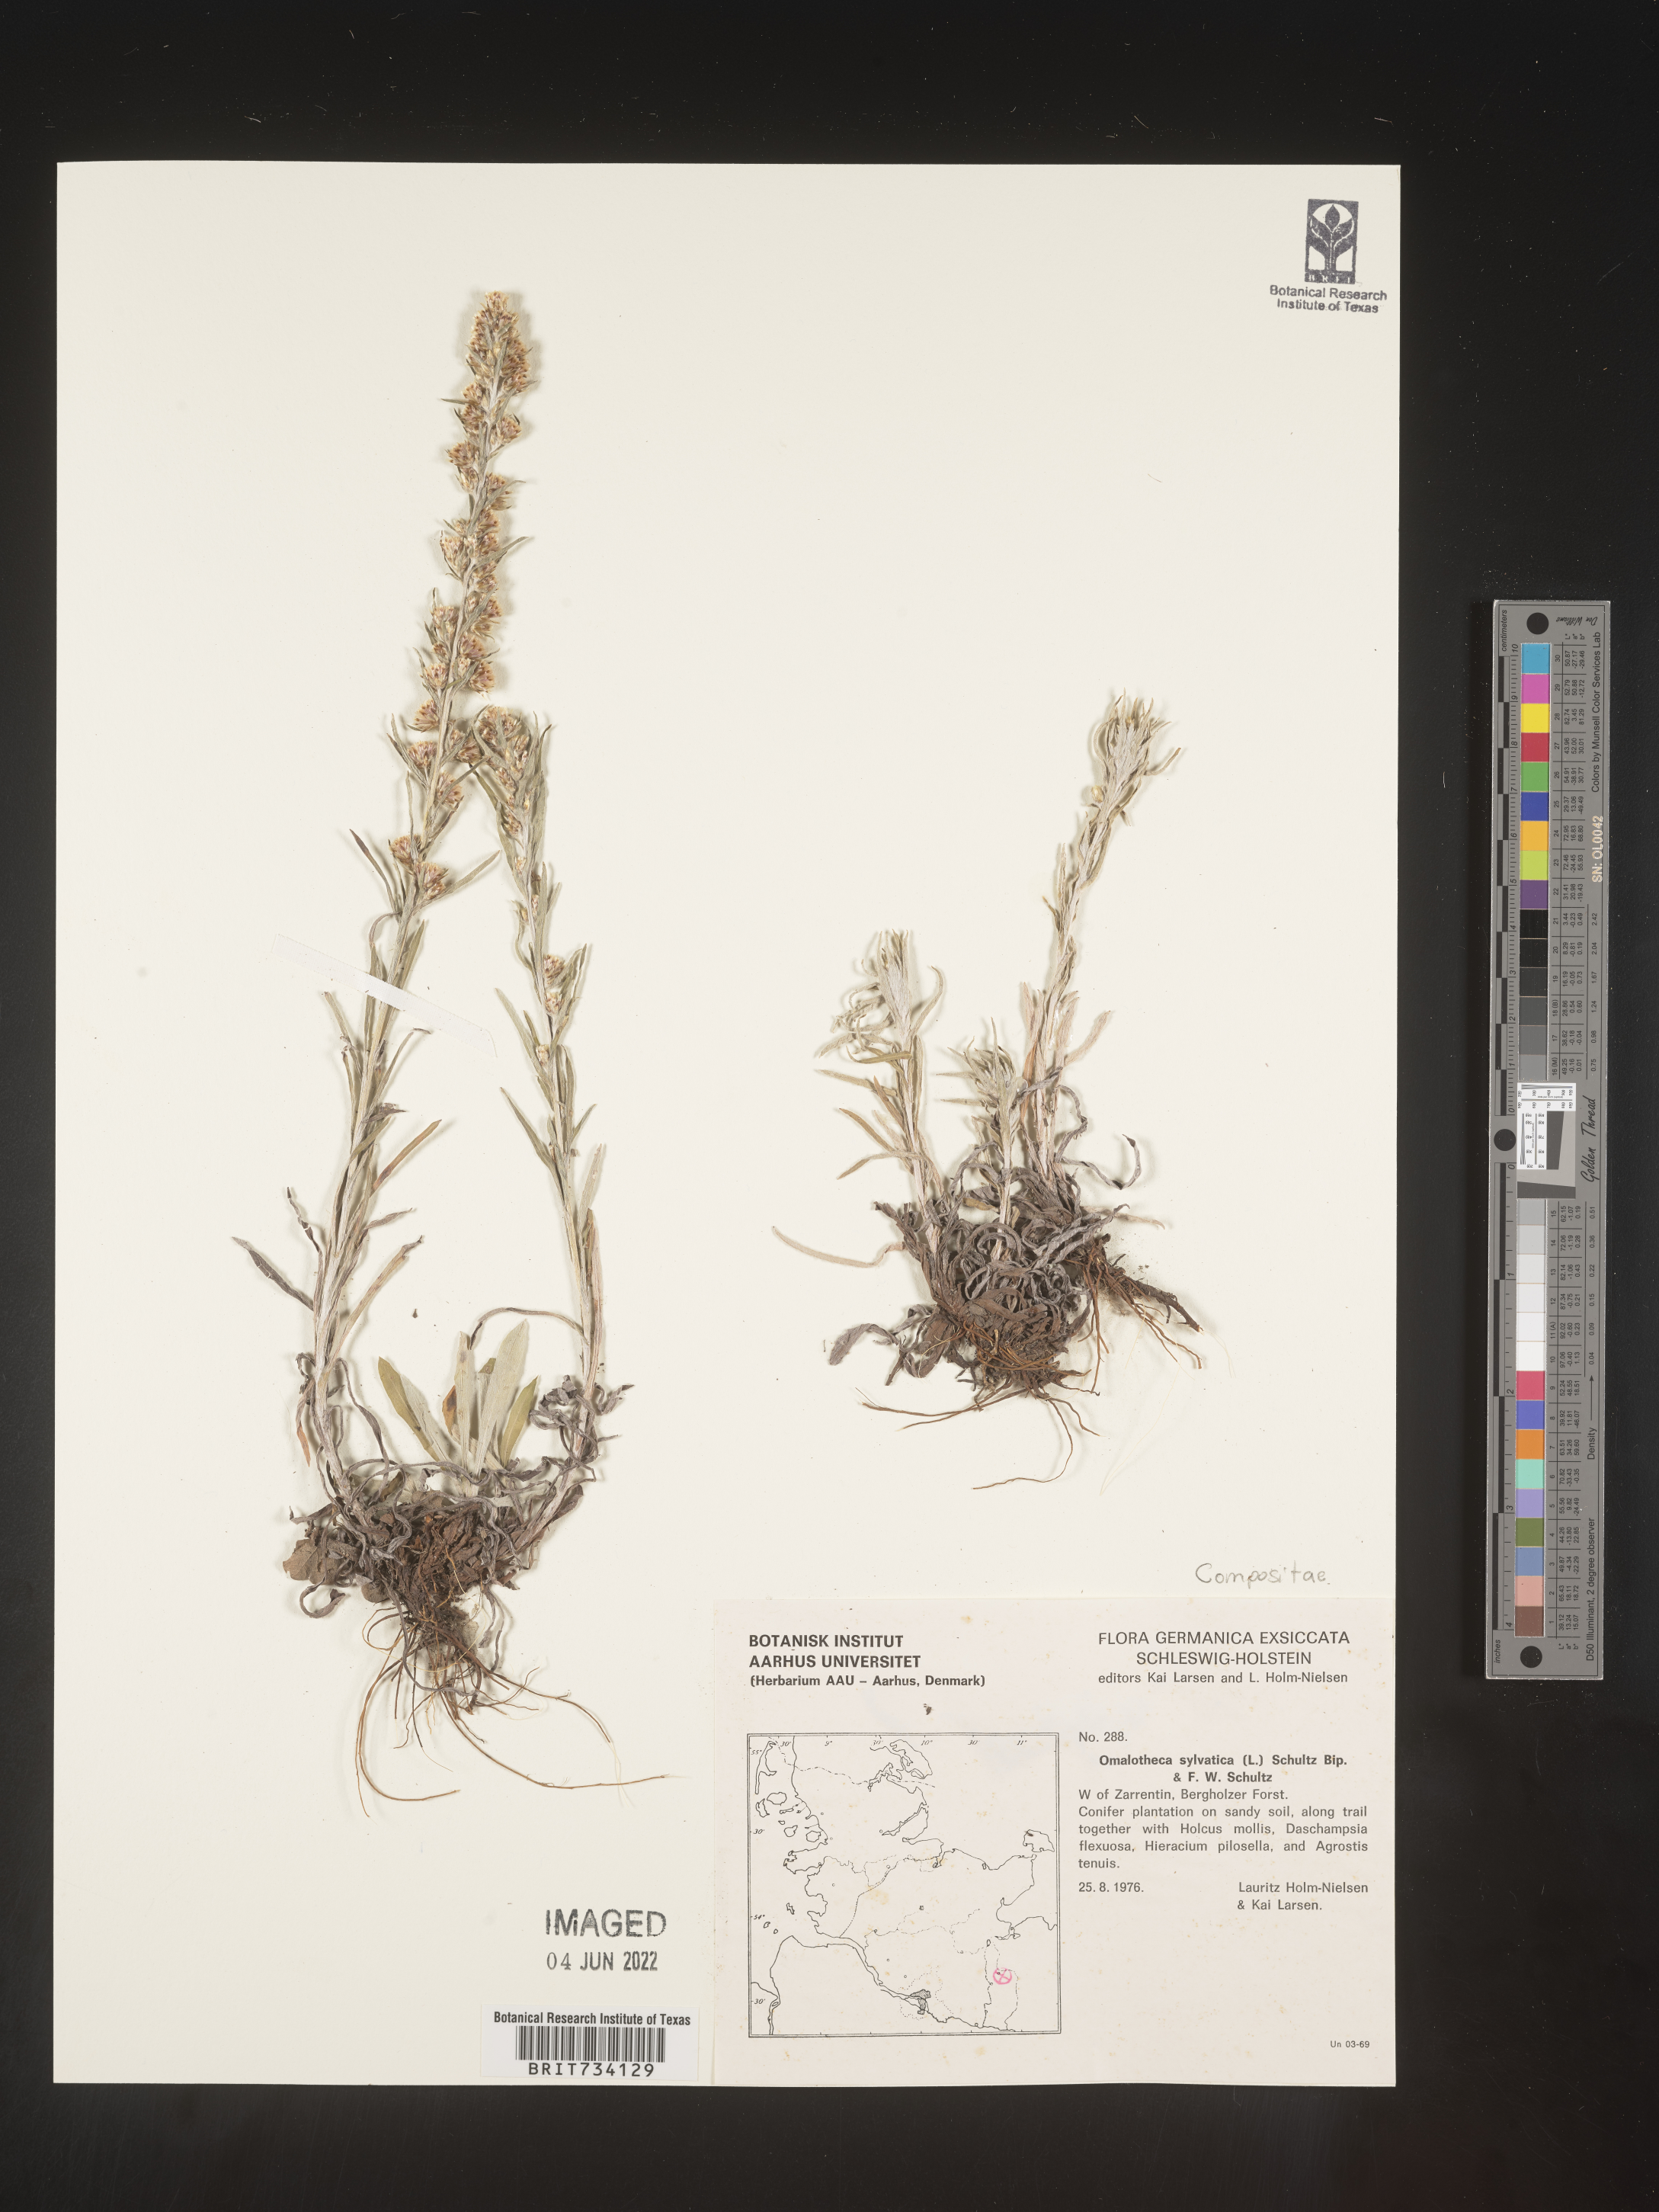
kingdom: Plantae
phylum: Tracheophyta
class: Magnoliopsida
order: Asterales
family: Asteraceae
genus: Omalotheca
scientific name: Omalotheca sylvatica
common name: Heath cudweed
